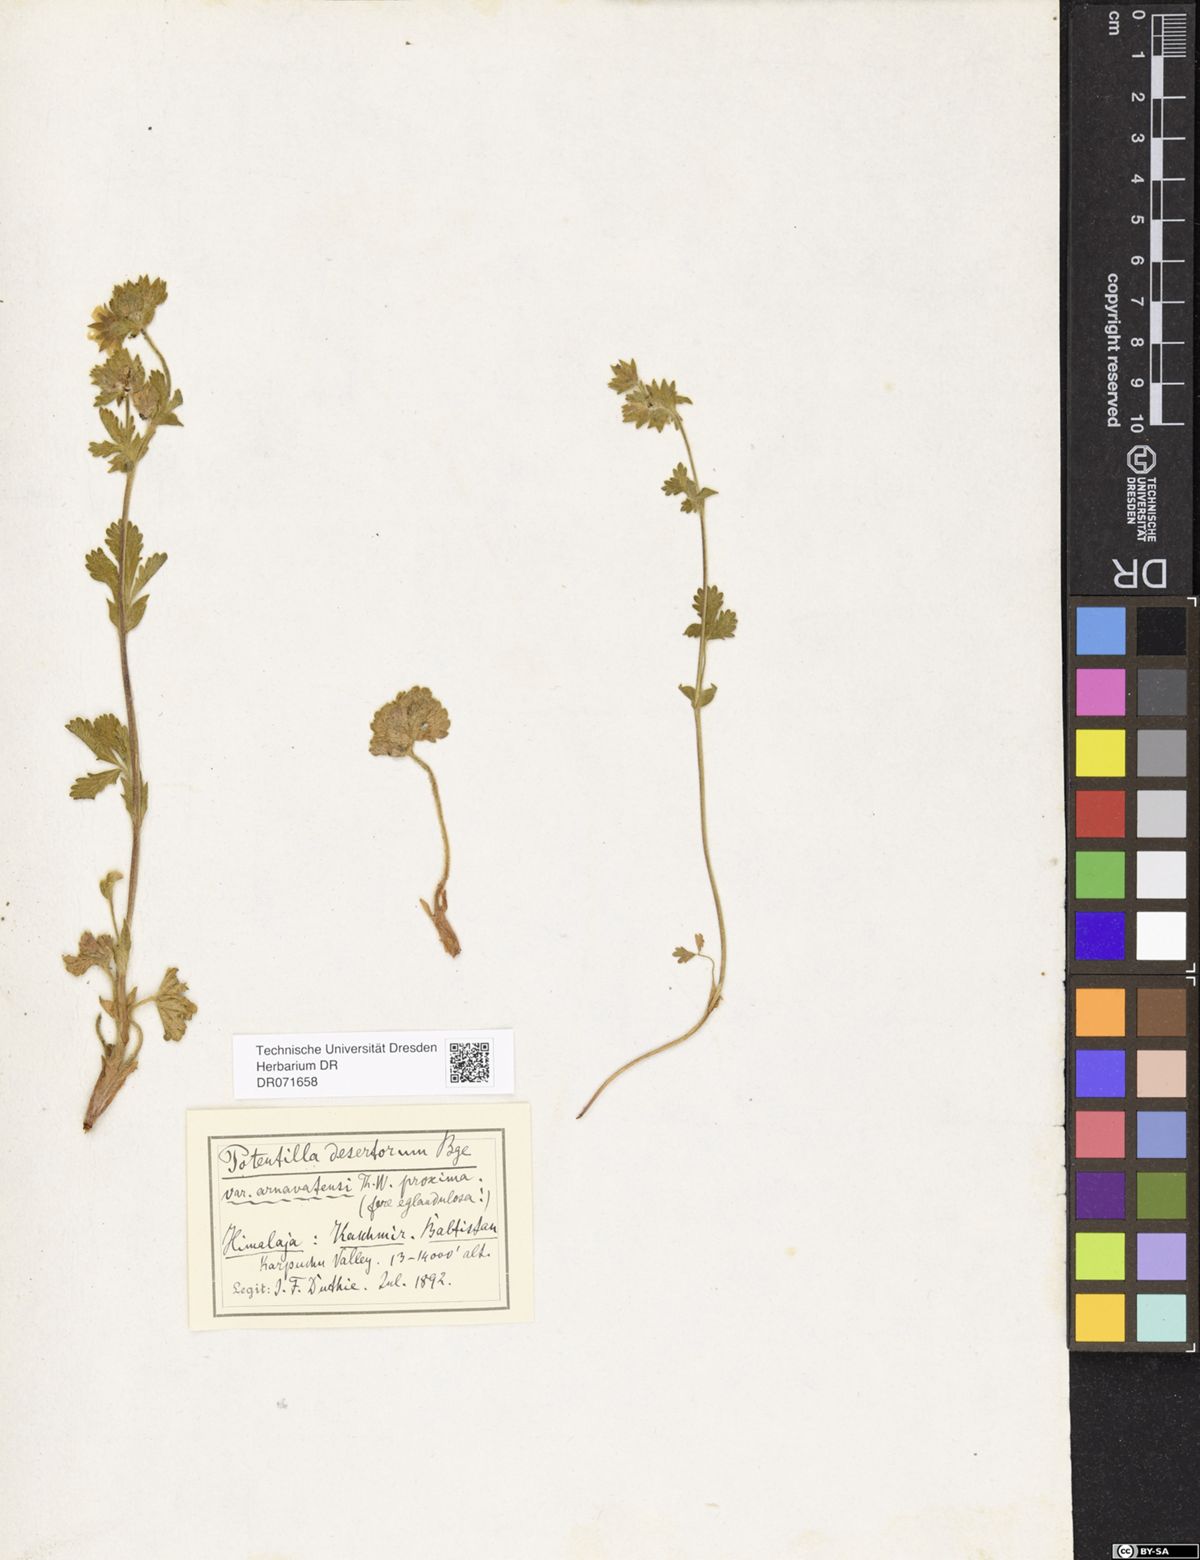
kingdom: Plantae
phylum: Tracheophyta
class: Magnoliopsida
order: Rosales
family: Rosaceae
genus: Potentilla
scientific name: Potentilla desertorum
